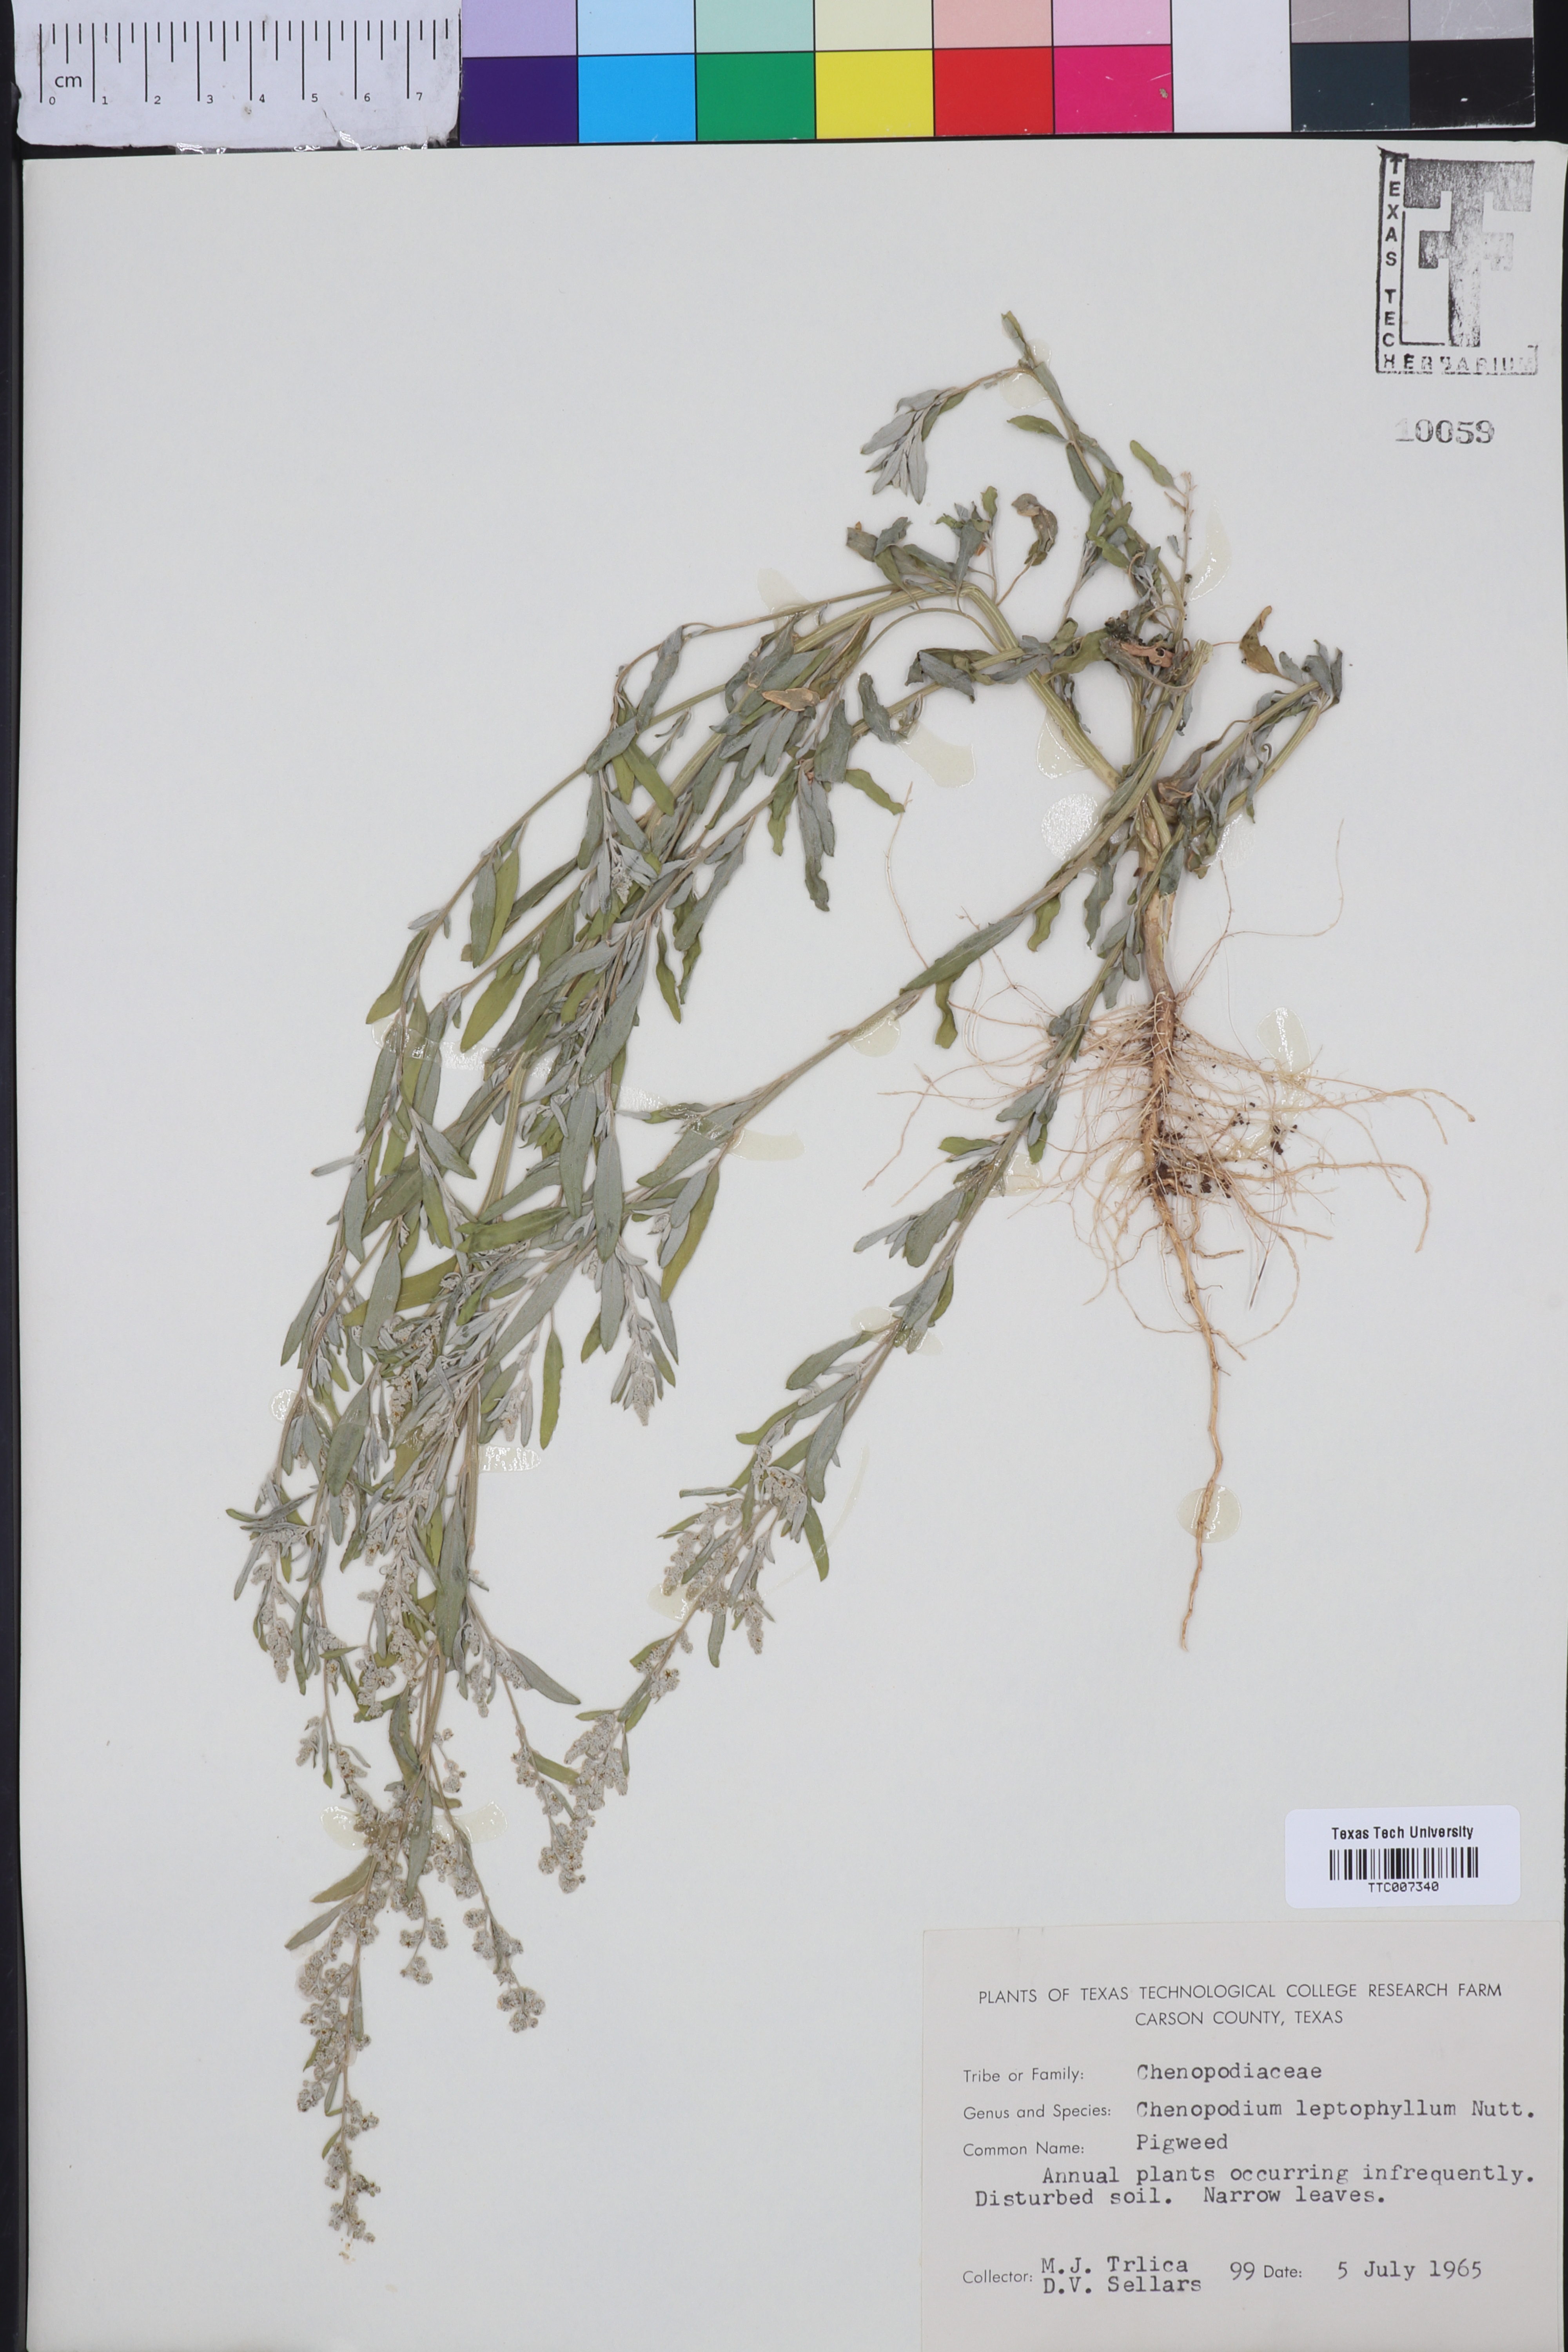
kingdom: Plantae
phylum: Tracheophyta
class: Magnoliopsida
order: Caryophyllales
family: Amaranthaceae
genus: Chenopodium
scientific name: Chenopodium leptophyllum
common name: Narrow-leaf goosefoot
